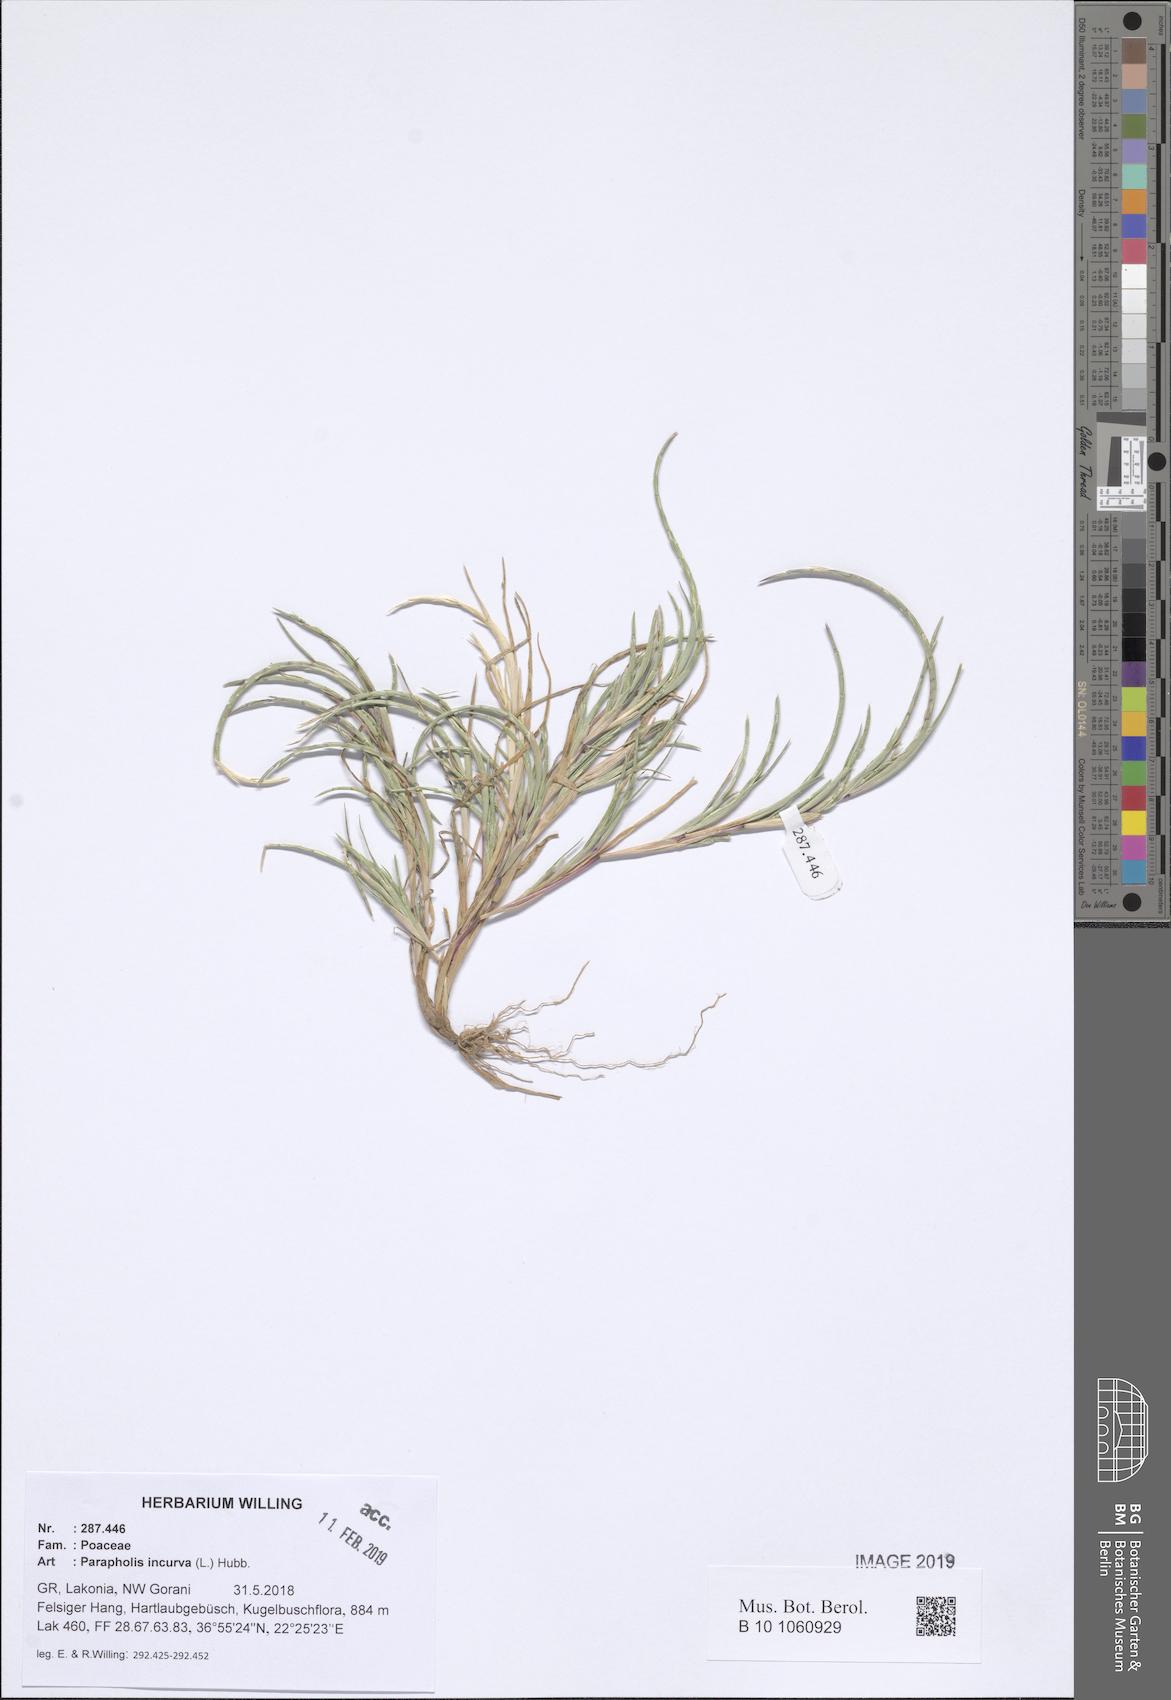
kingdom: Plantae
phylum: Tracheophyta
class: Liliopsida
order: Poales
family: Poaceae
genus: Parapholis
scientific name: Parapholis incurva
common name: Curved sicklegrass
